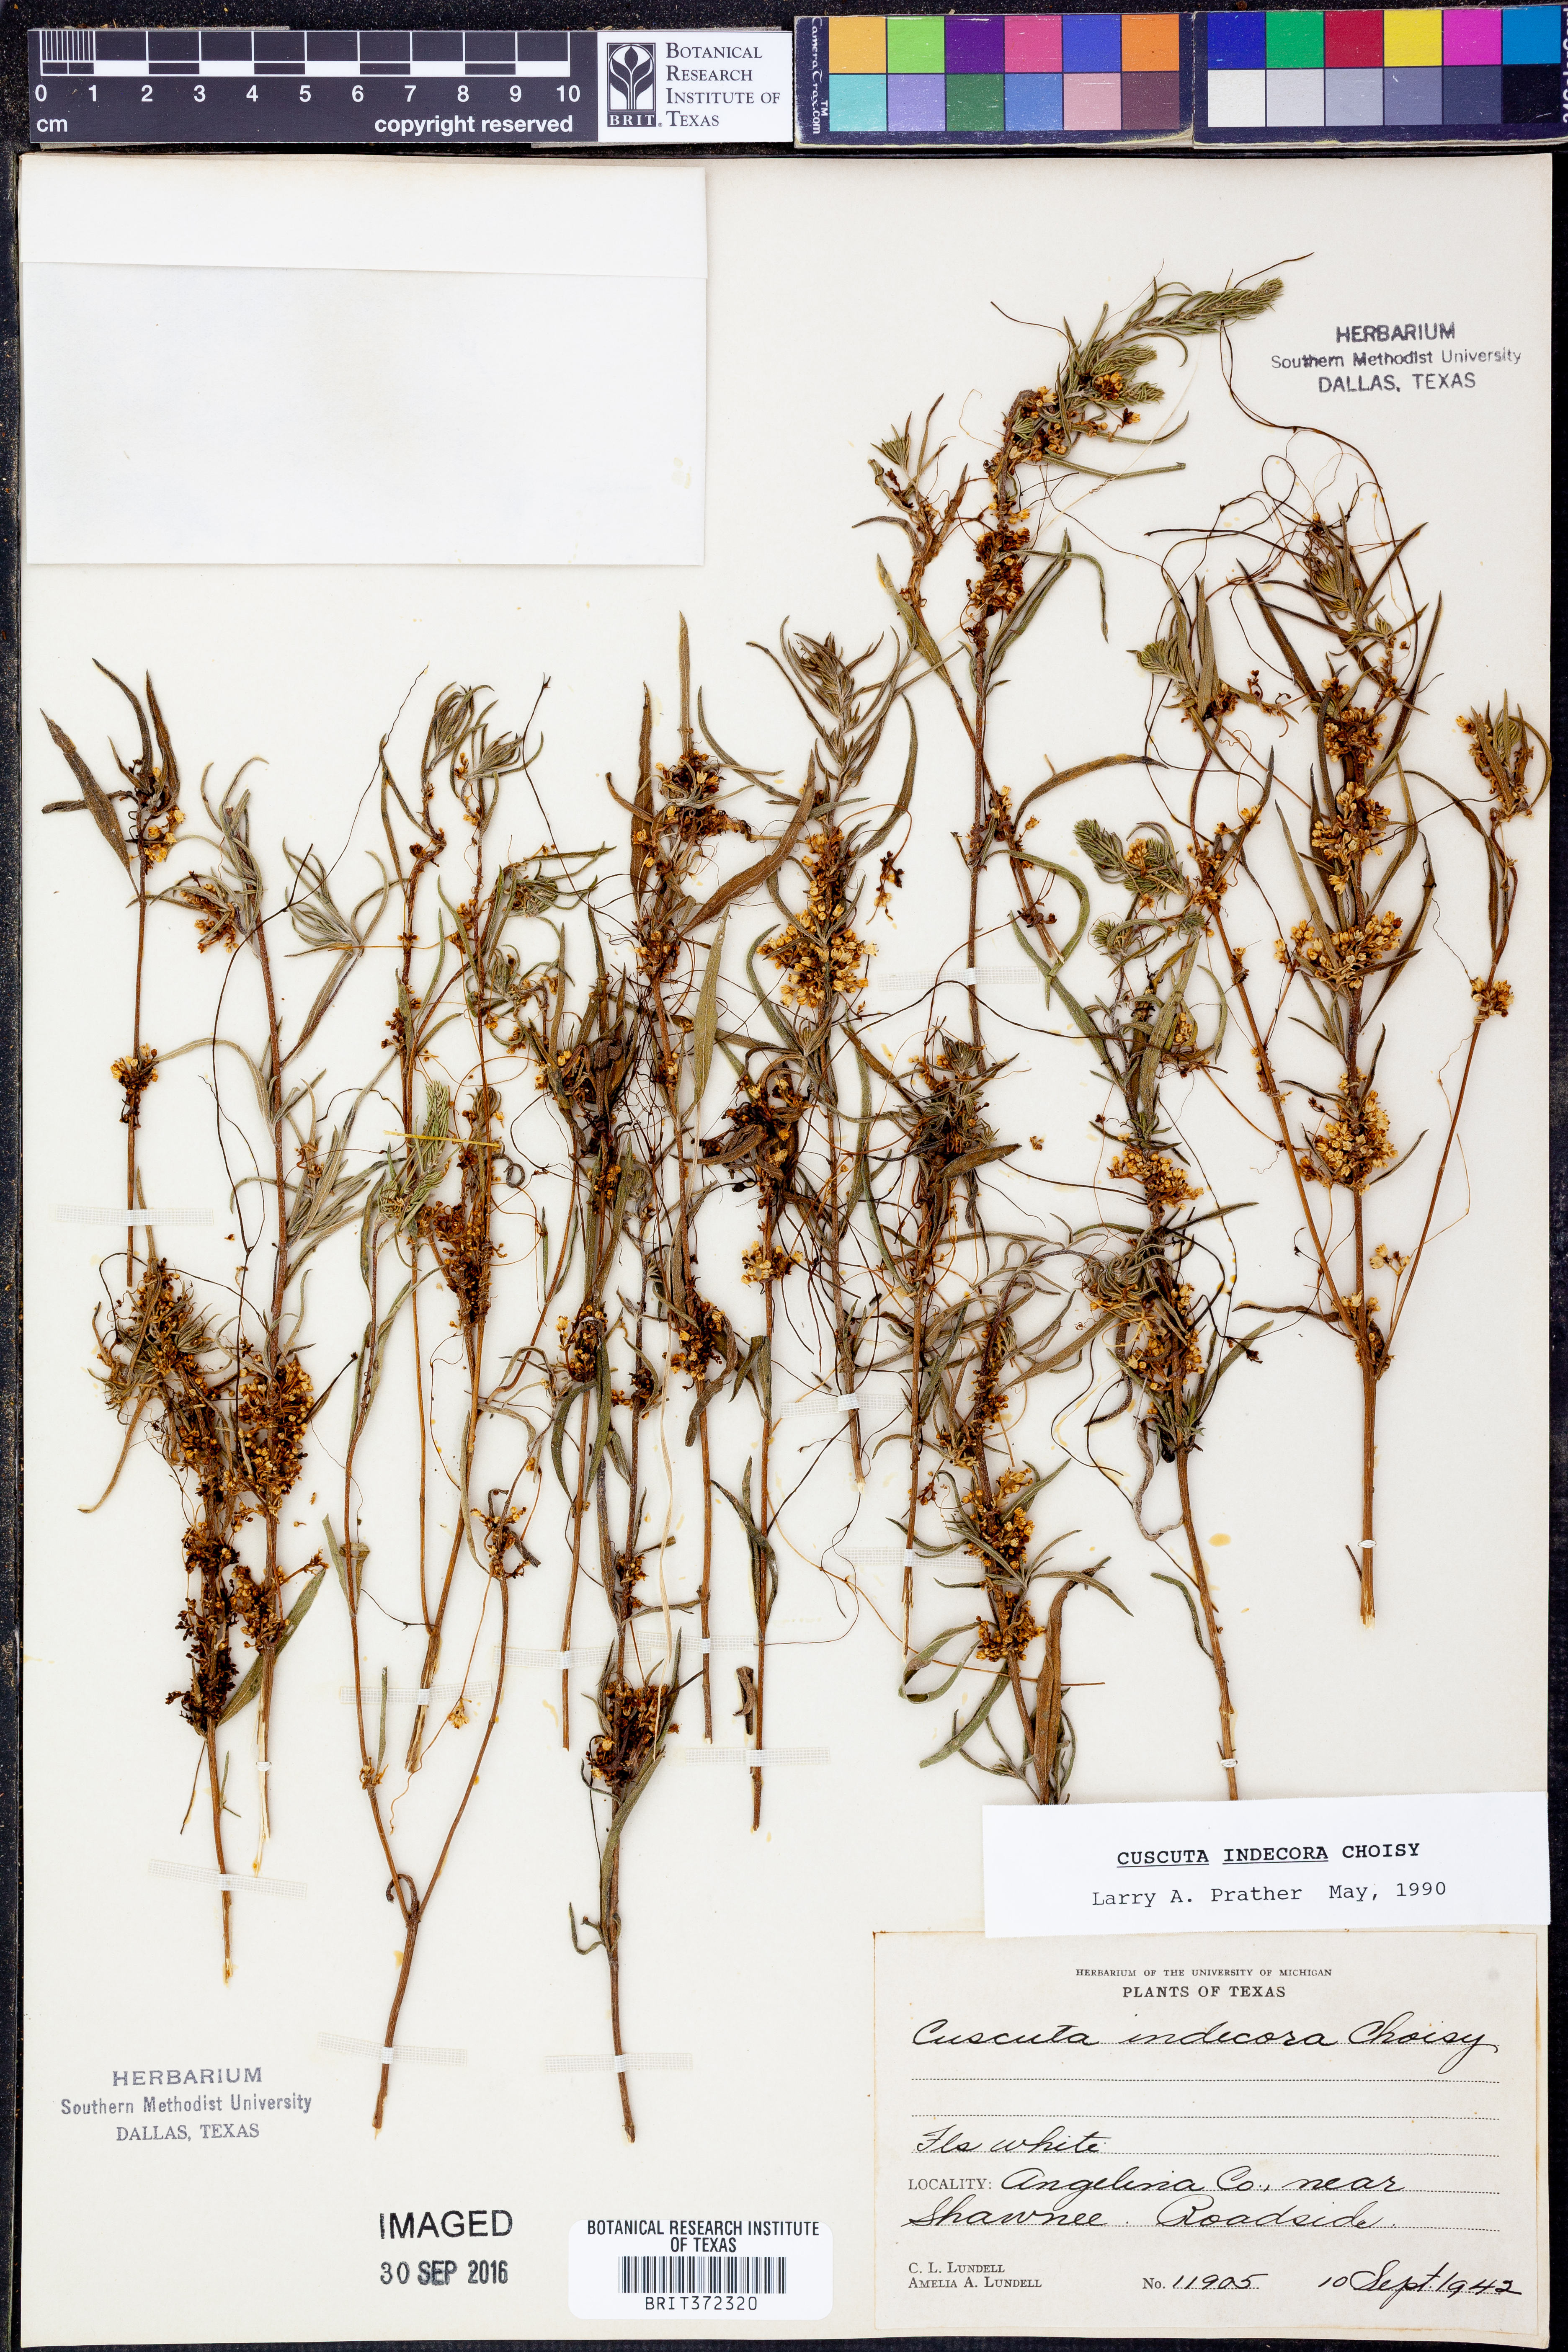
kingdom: Plantae
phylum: Tracheophyta
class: Magnoliopsida
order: Solanales
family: Convolvulaceae
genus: Cuscuta
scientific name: Cuscuta indecora
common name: Large-seed dodder
